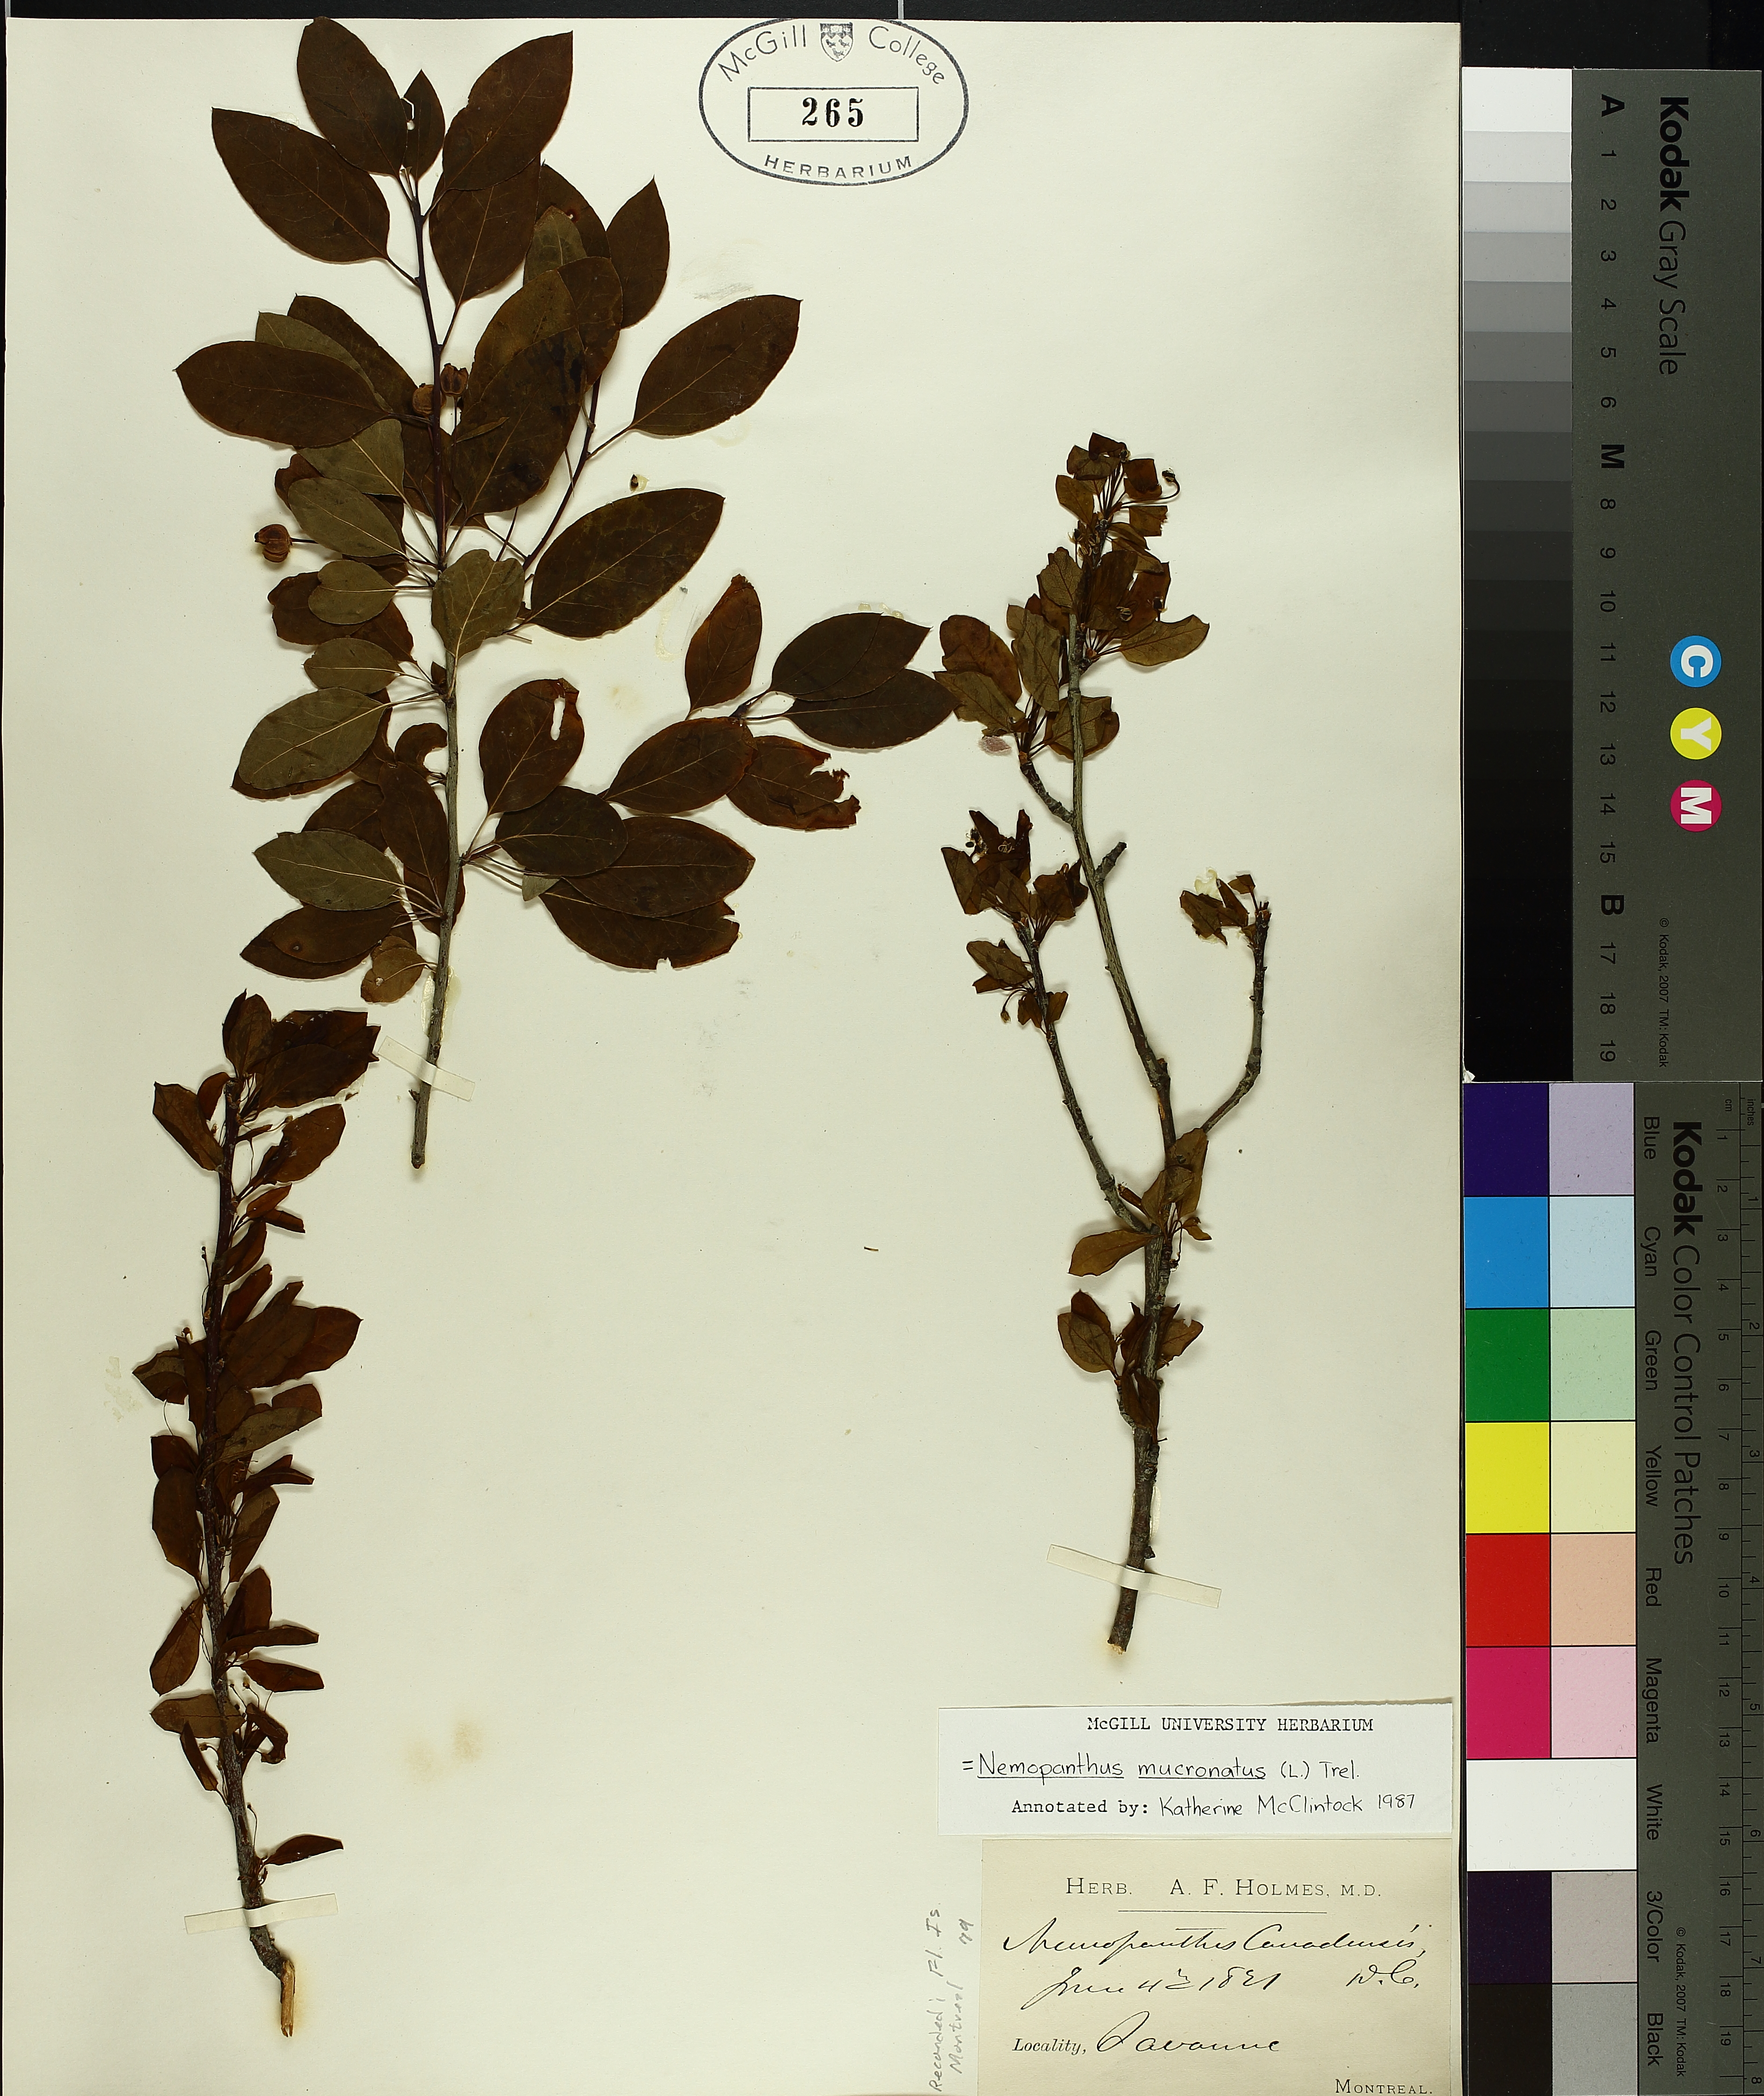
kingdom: Plantae
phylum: Tracheophyta
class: Magnoliopsida
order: Aquifoliales
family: Aquifoliaceae
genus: Ilex
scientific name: Ilex mucronata
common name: Catberry
